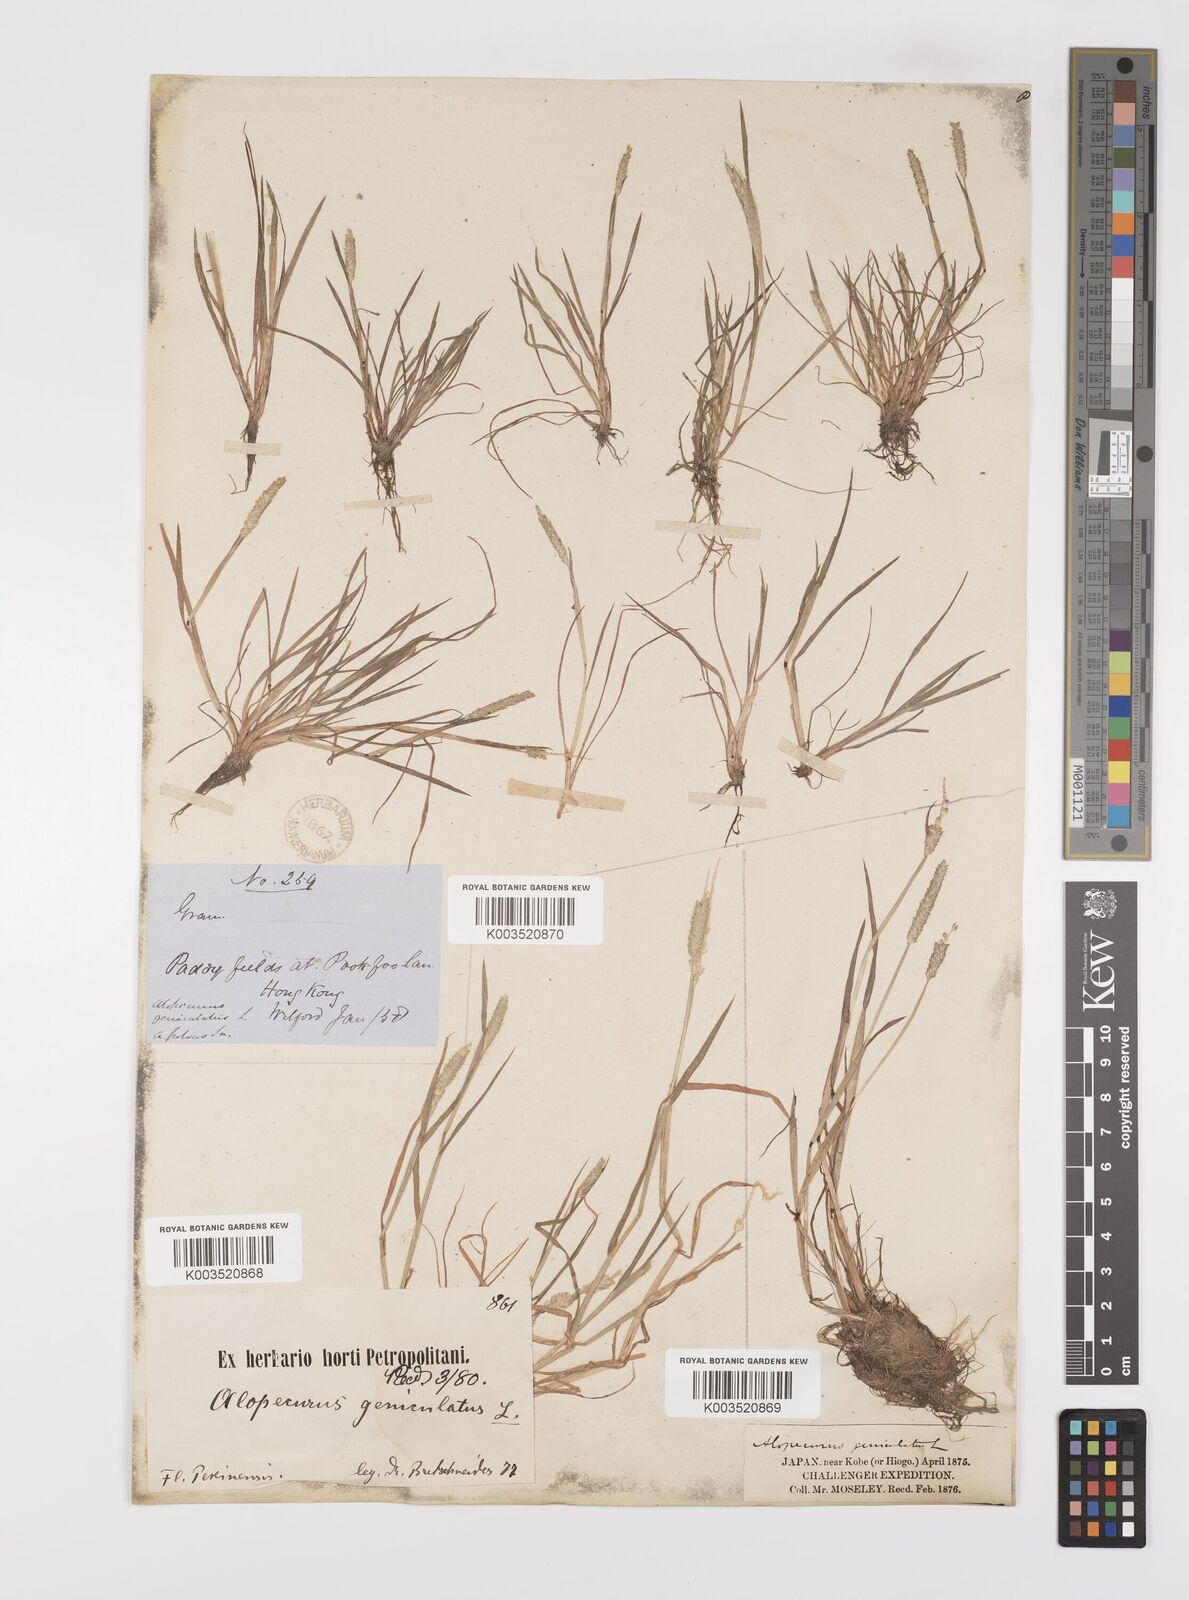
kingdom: Plantae
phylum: Tracheophyta
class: Liliopsida
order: Poales
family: Poaceae
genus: Alopecurus
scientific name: Alopecurus aequalis
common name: Orange foxtail
